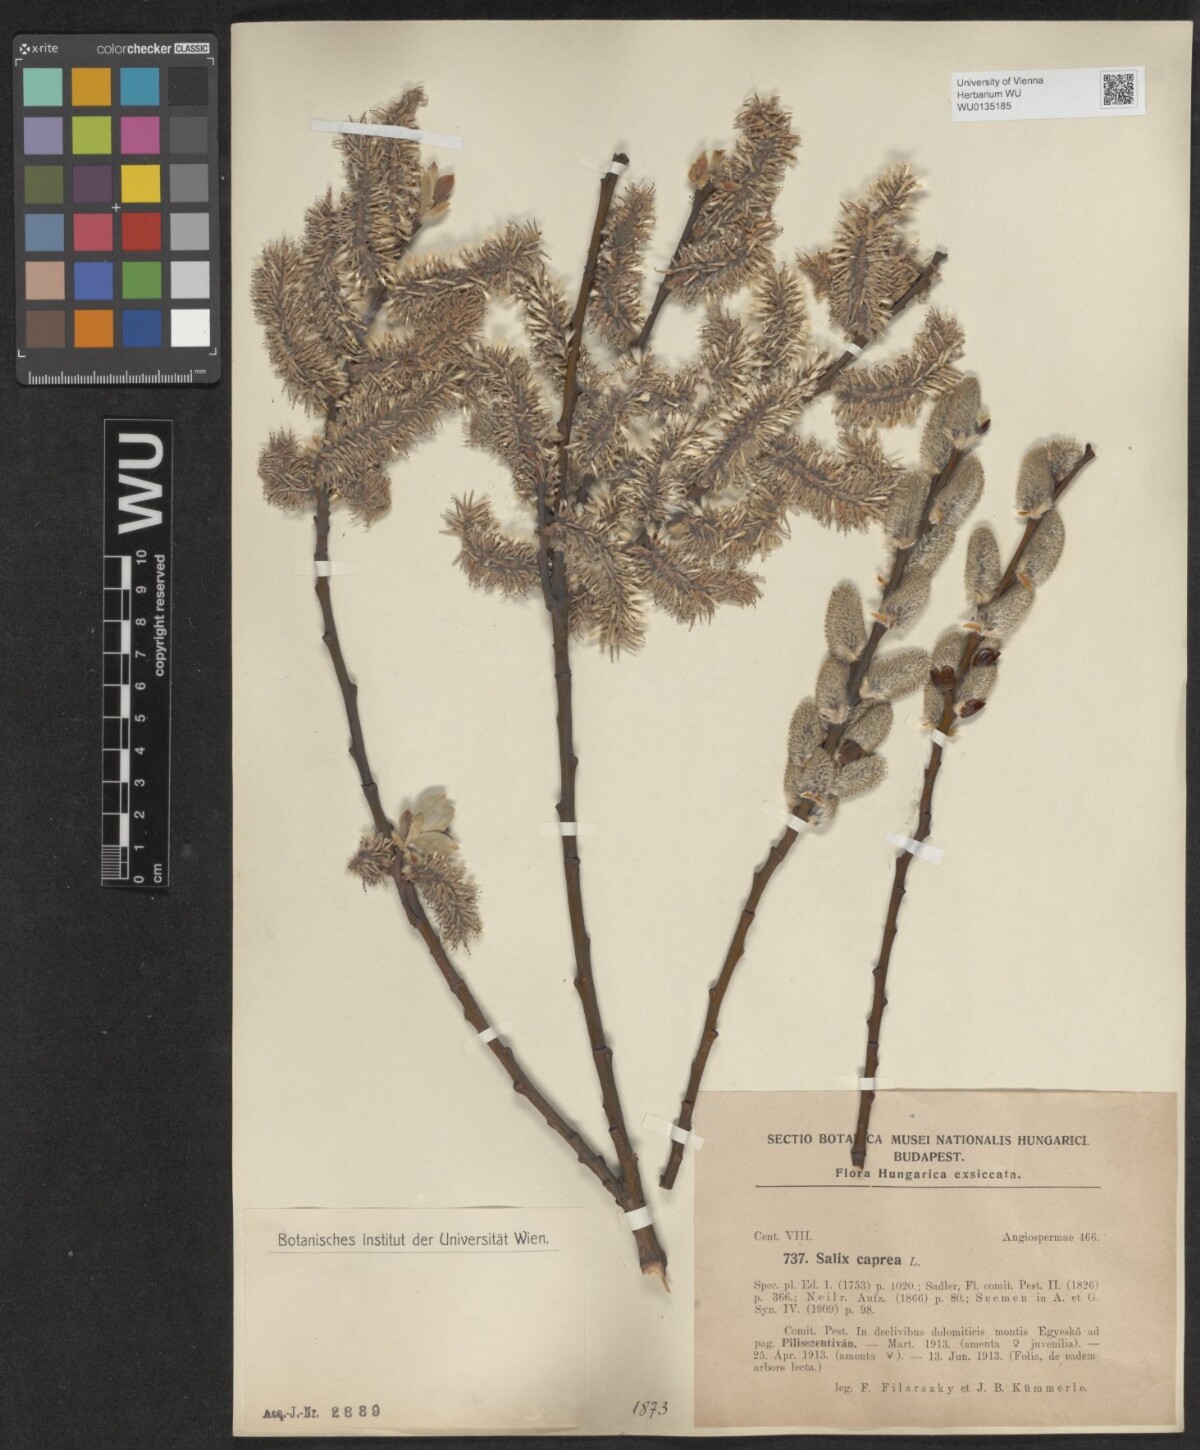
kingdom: Plantae
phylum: Tracheophyta
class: Magnoliopsida
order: Malpighiales
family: Salicaceae
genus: Salix
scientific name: Salix caprea
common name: Goat willow
